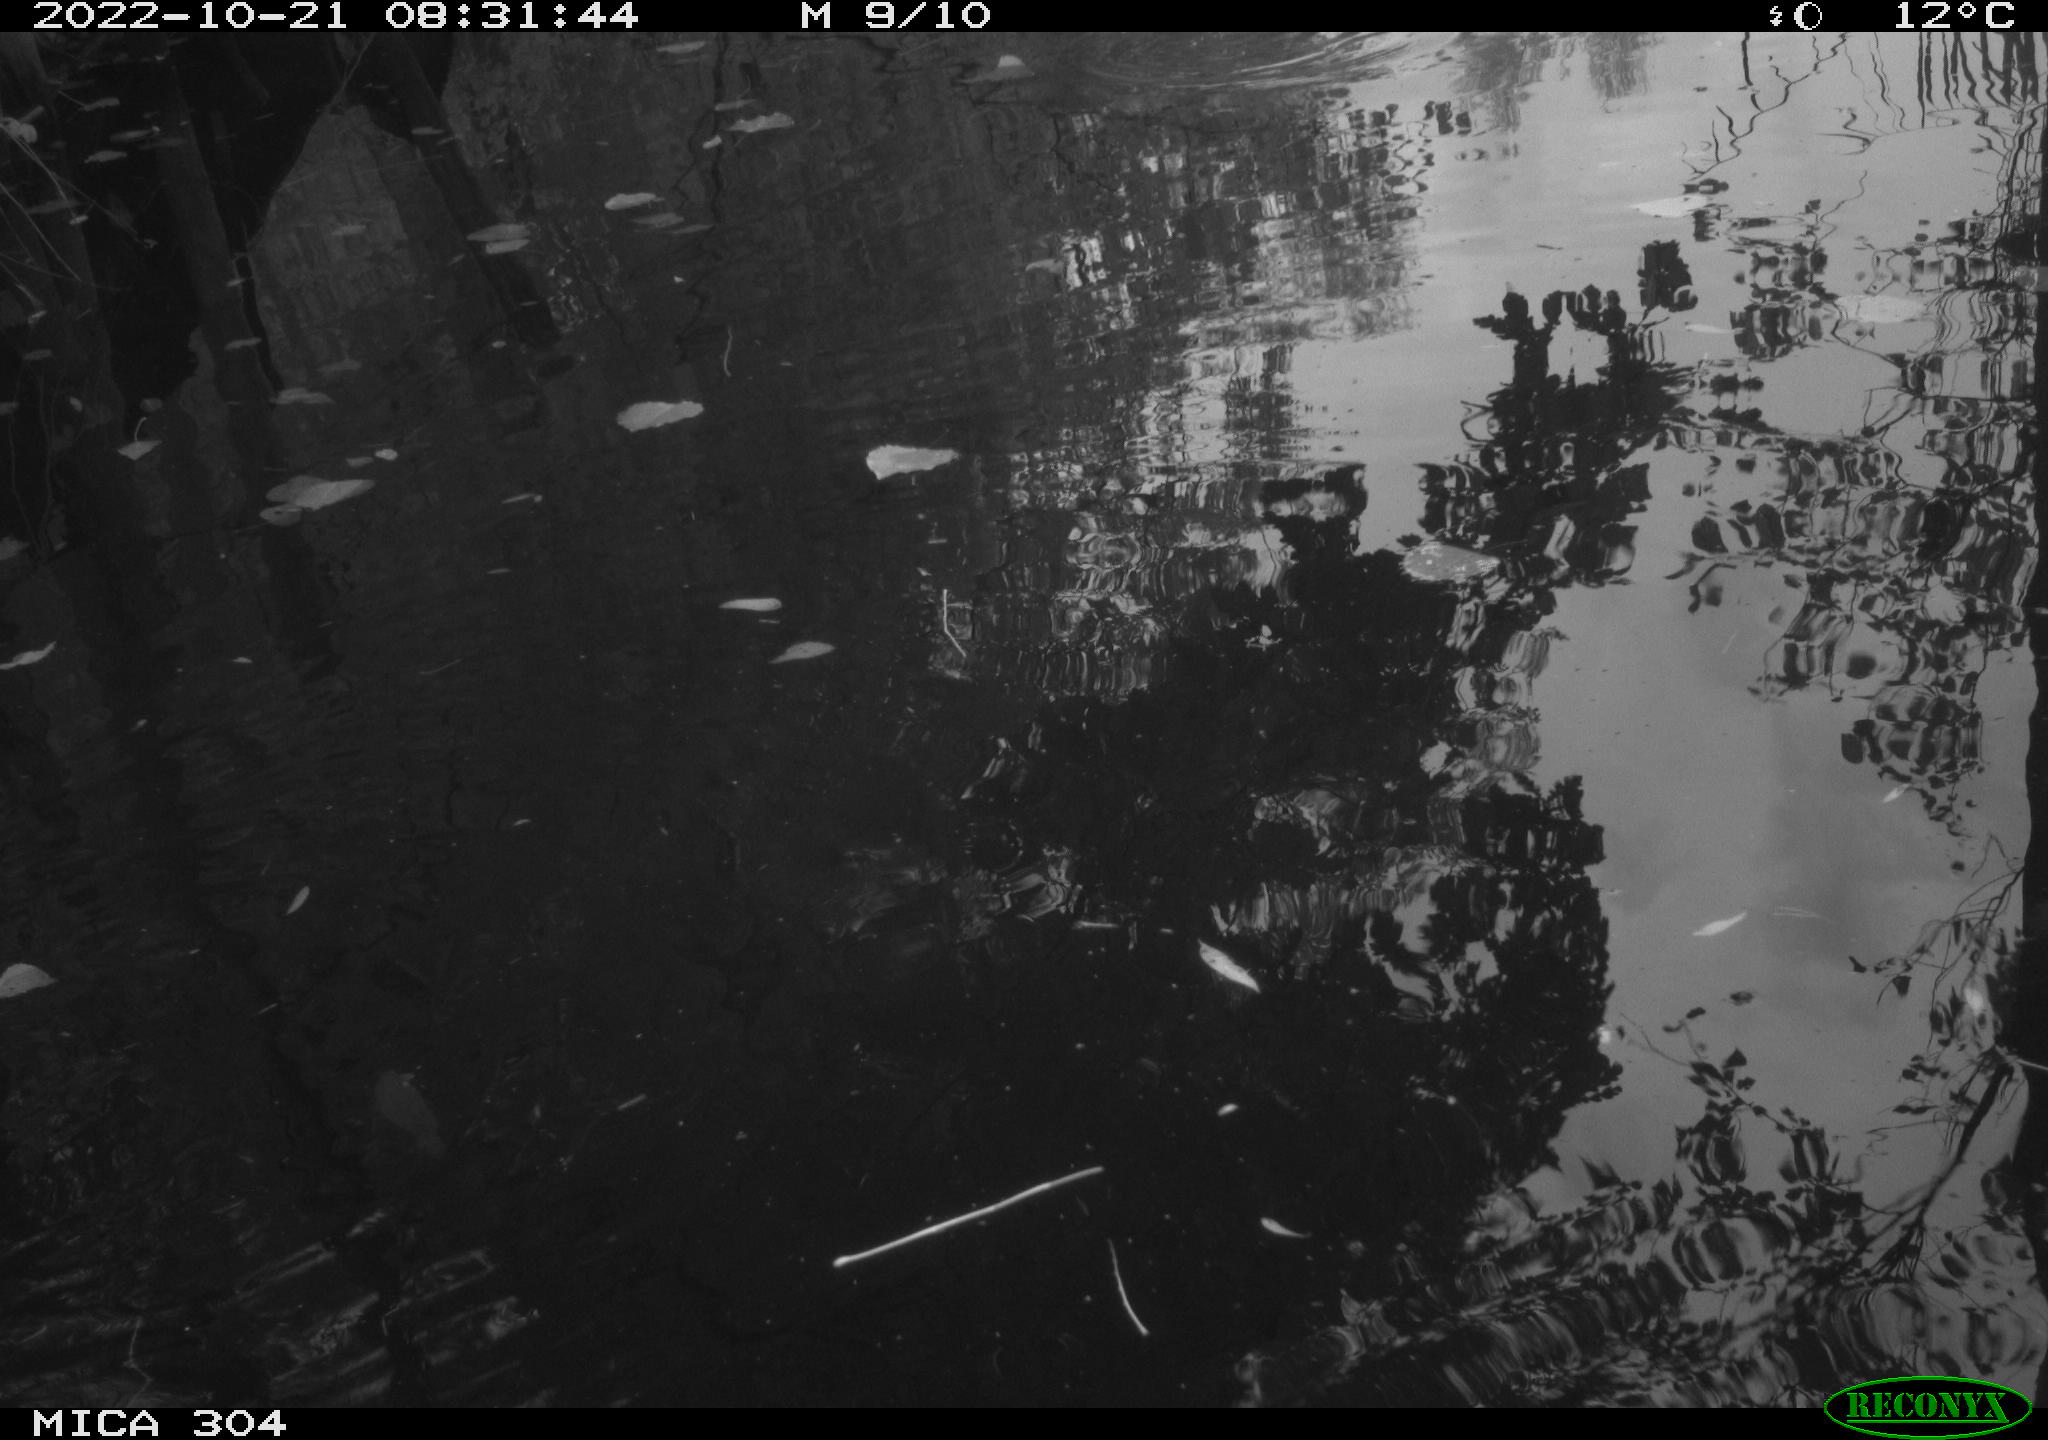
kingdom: Animalia
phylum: Chordata
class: Aves
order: Gruiformes
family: Rallidae
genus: Gallinula
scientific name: Gallinula chloropus
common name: Common moorhen
